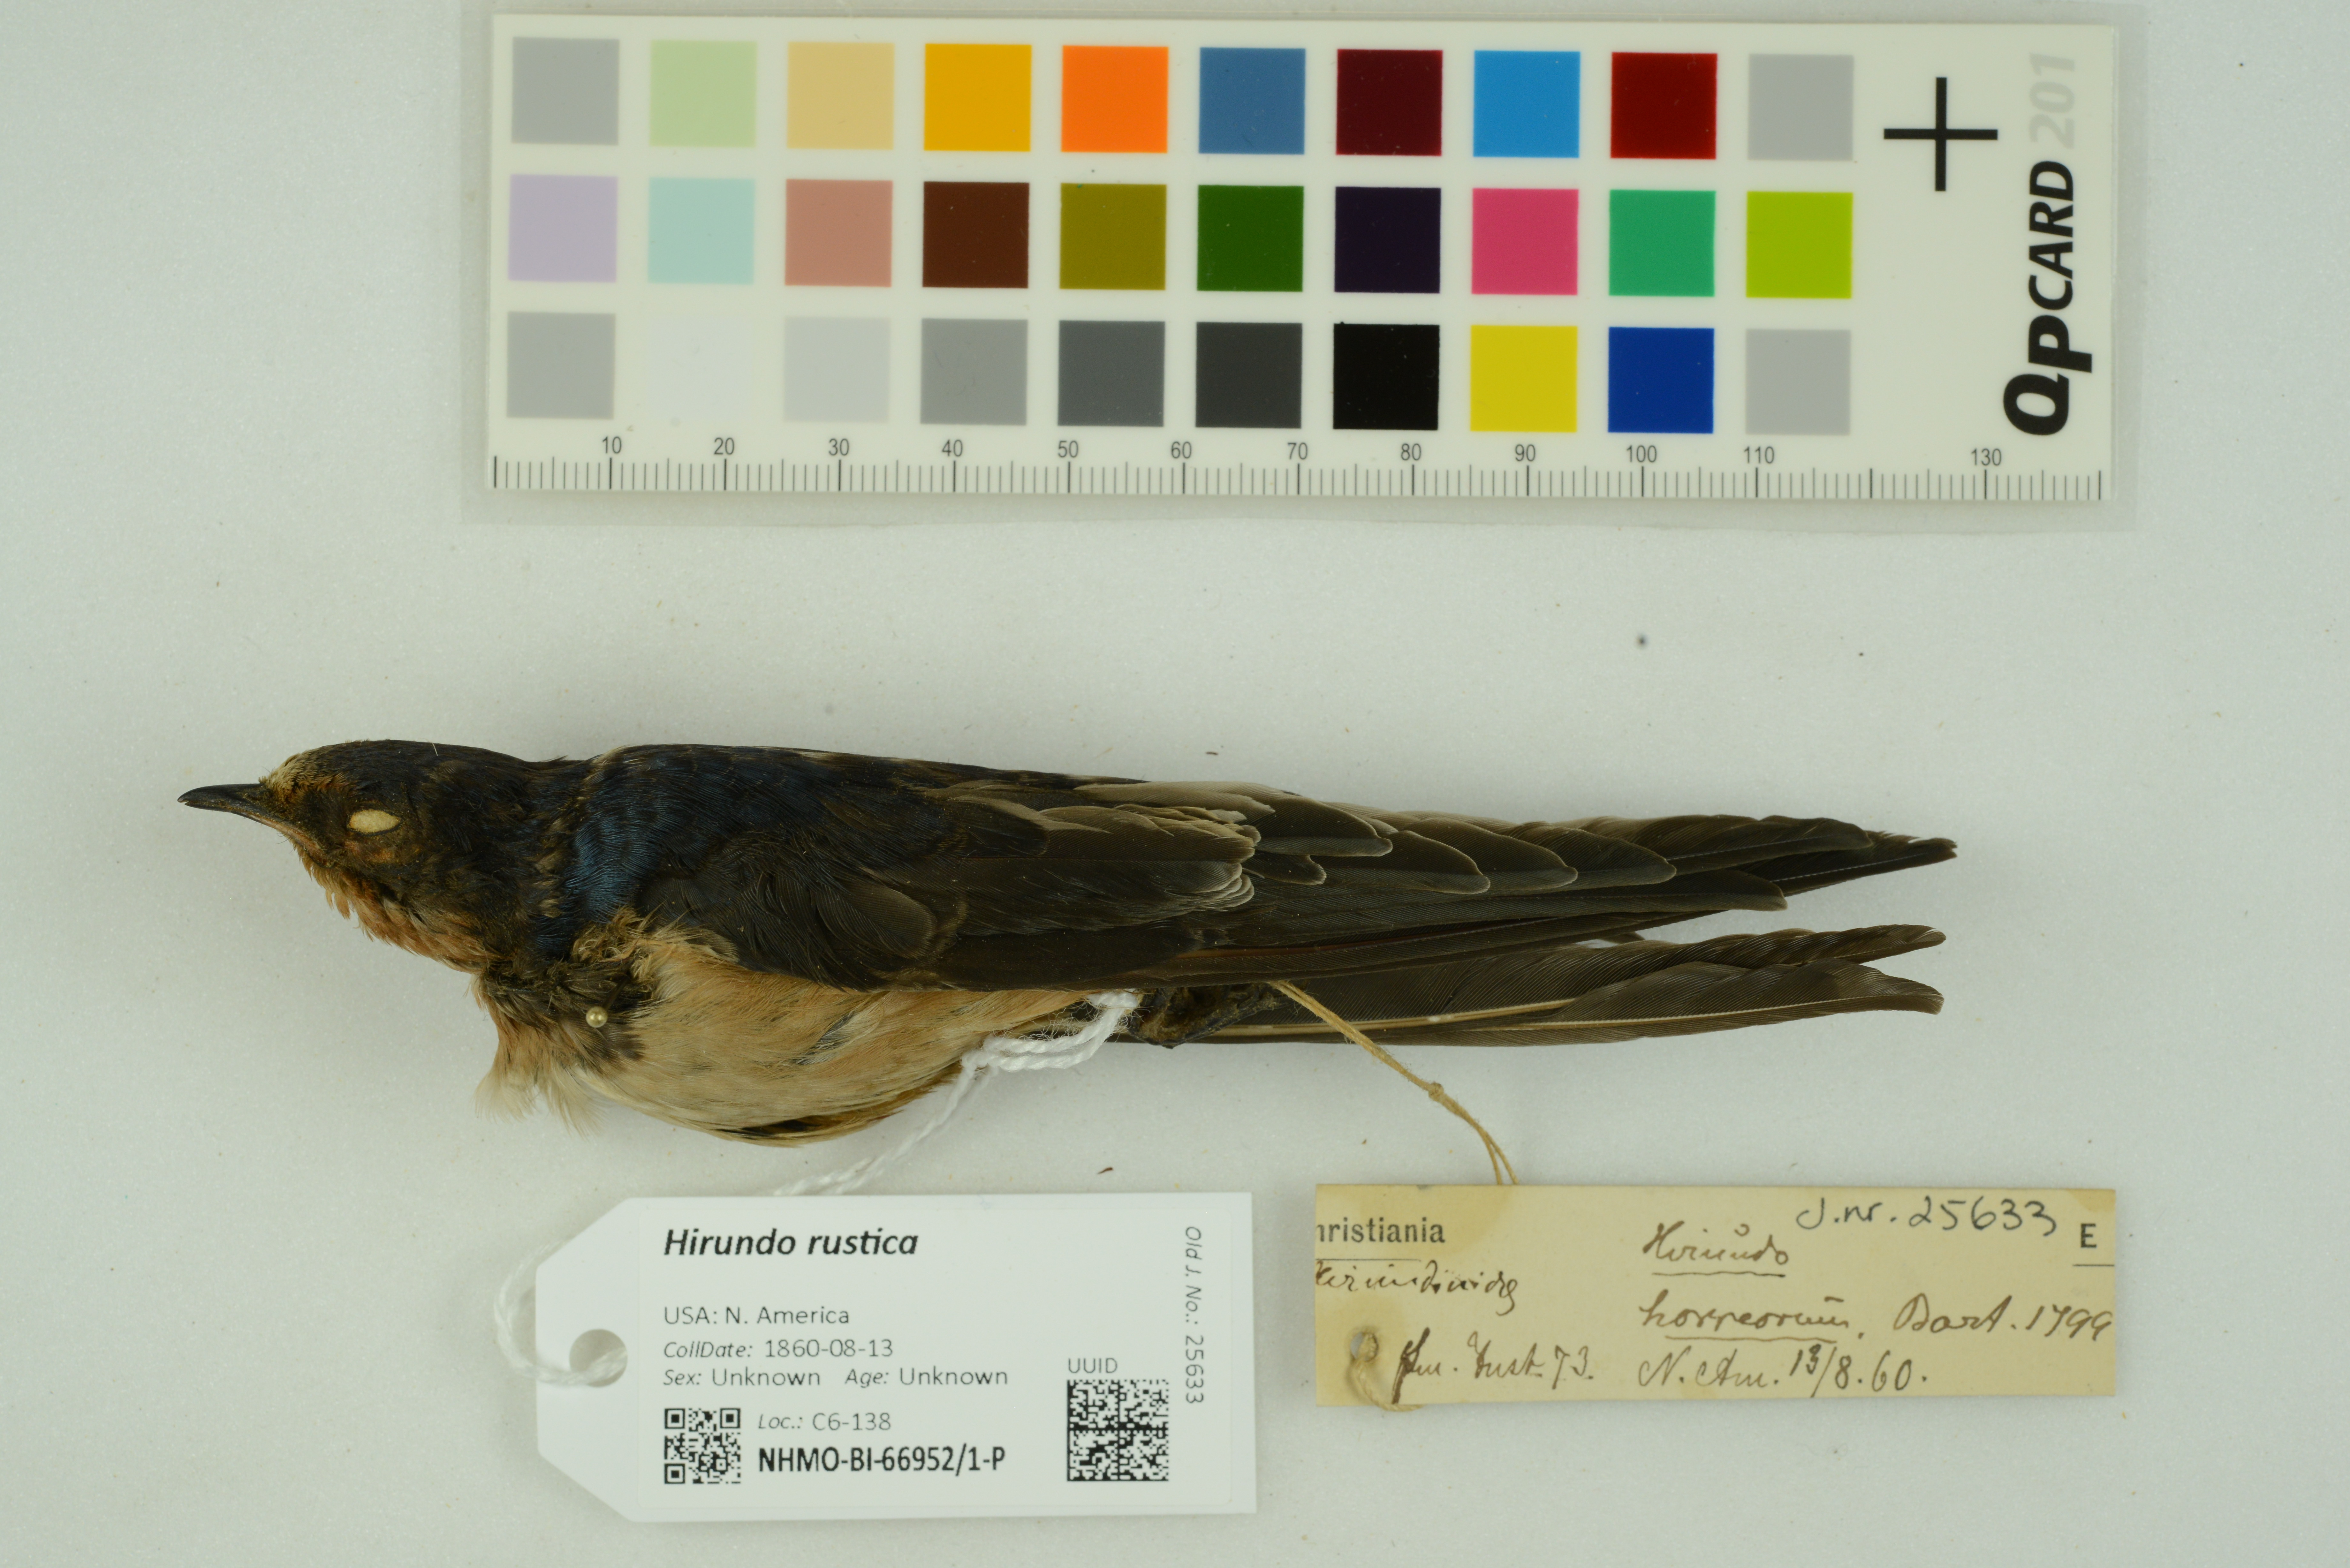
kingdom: Animalia
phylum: Chordata
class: Aves
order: Passeriformes
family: Hirundinidae
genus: Hirundo
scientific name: Hirundo rustica
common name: Barn swallow
